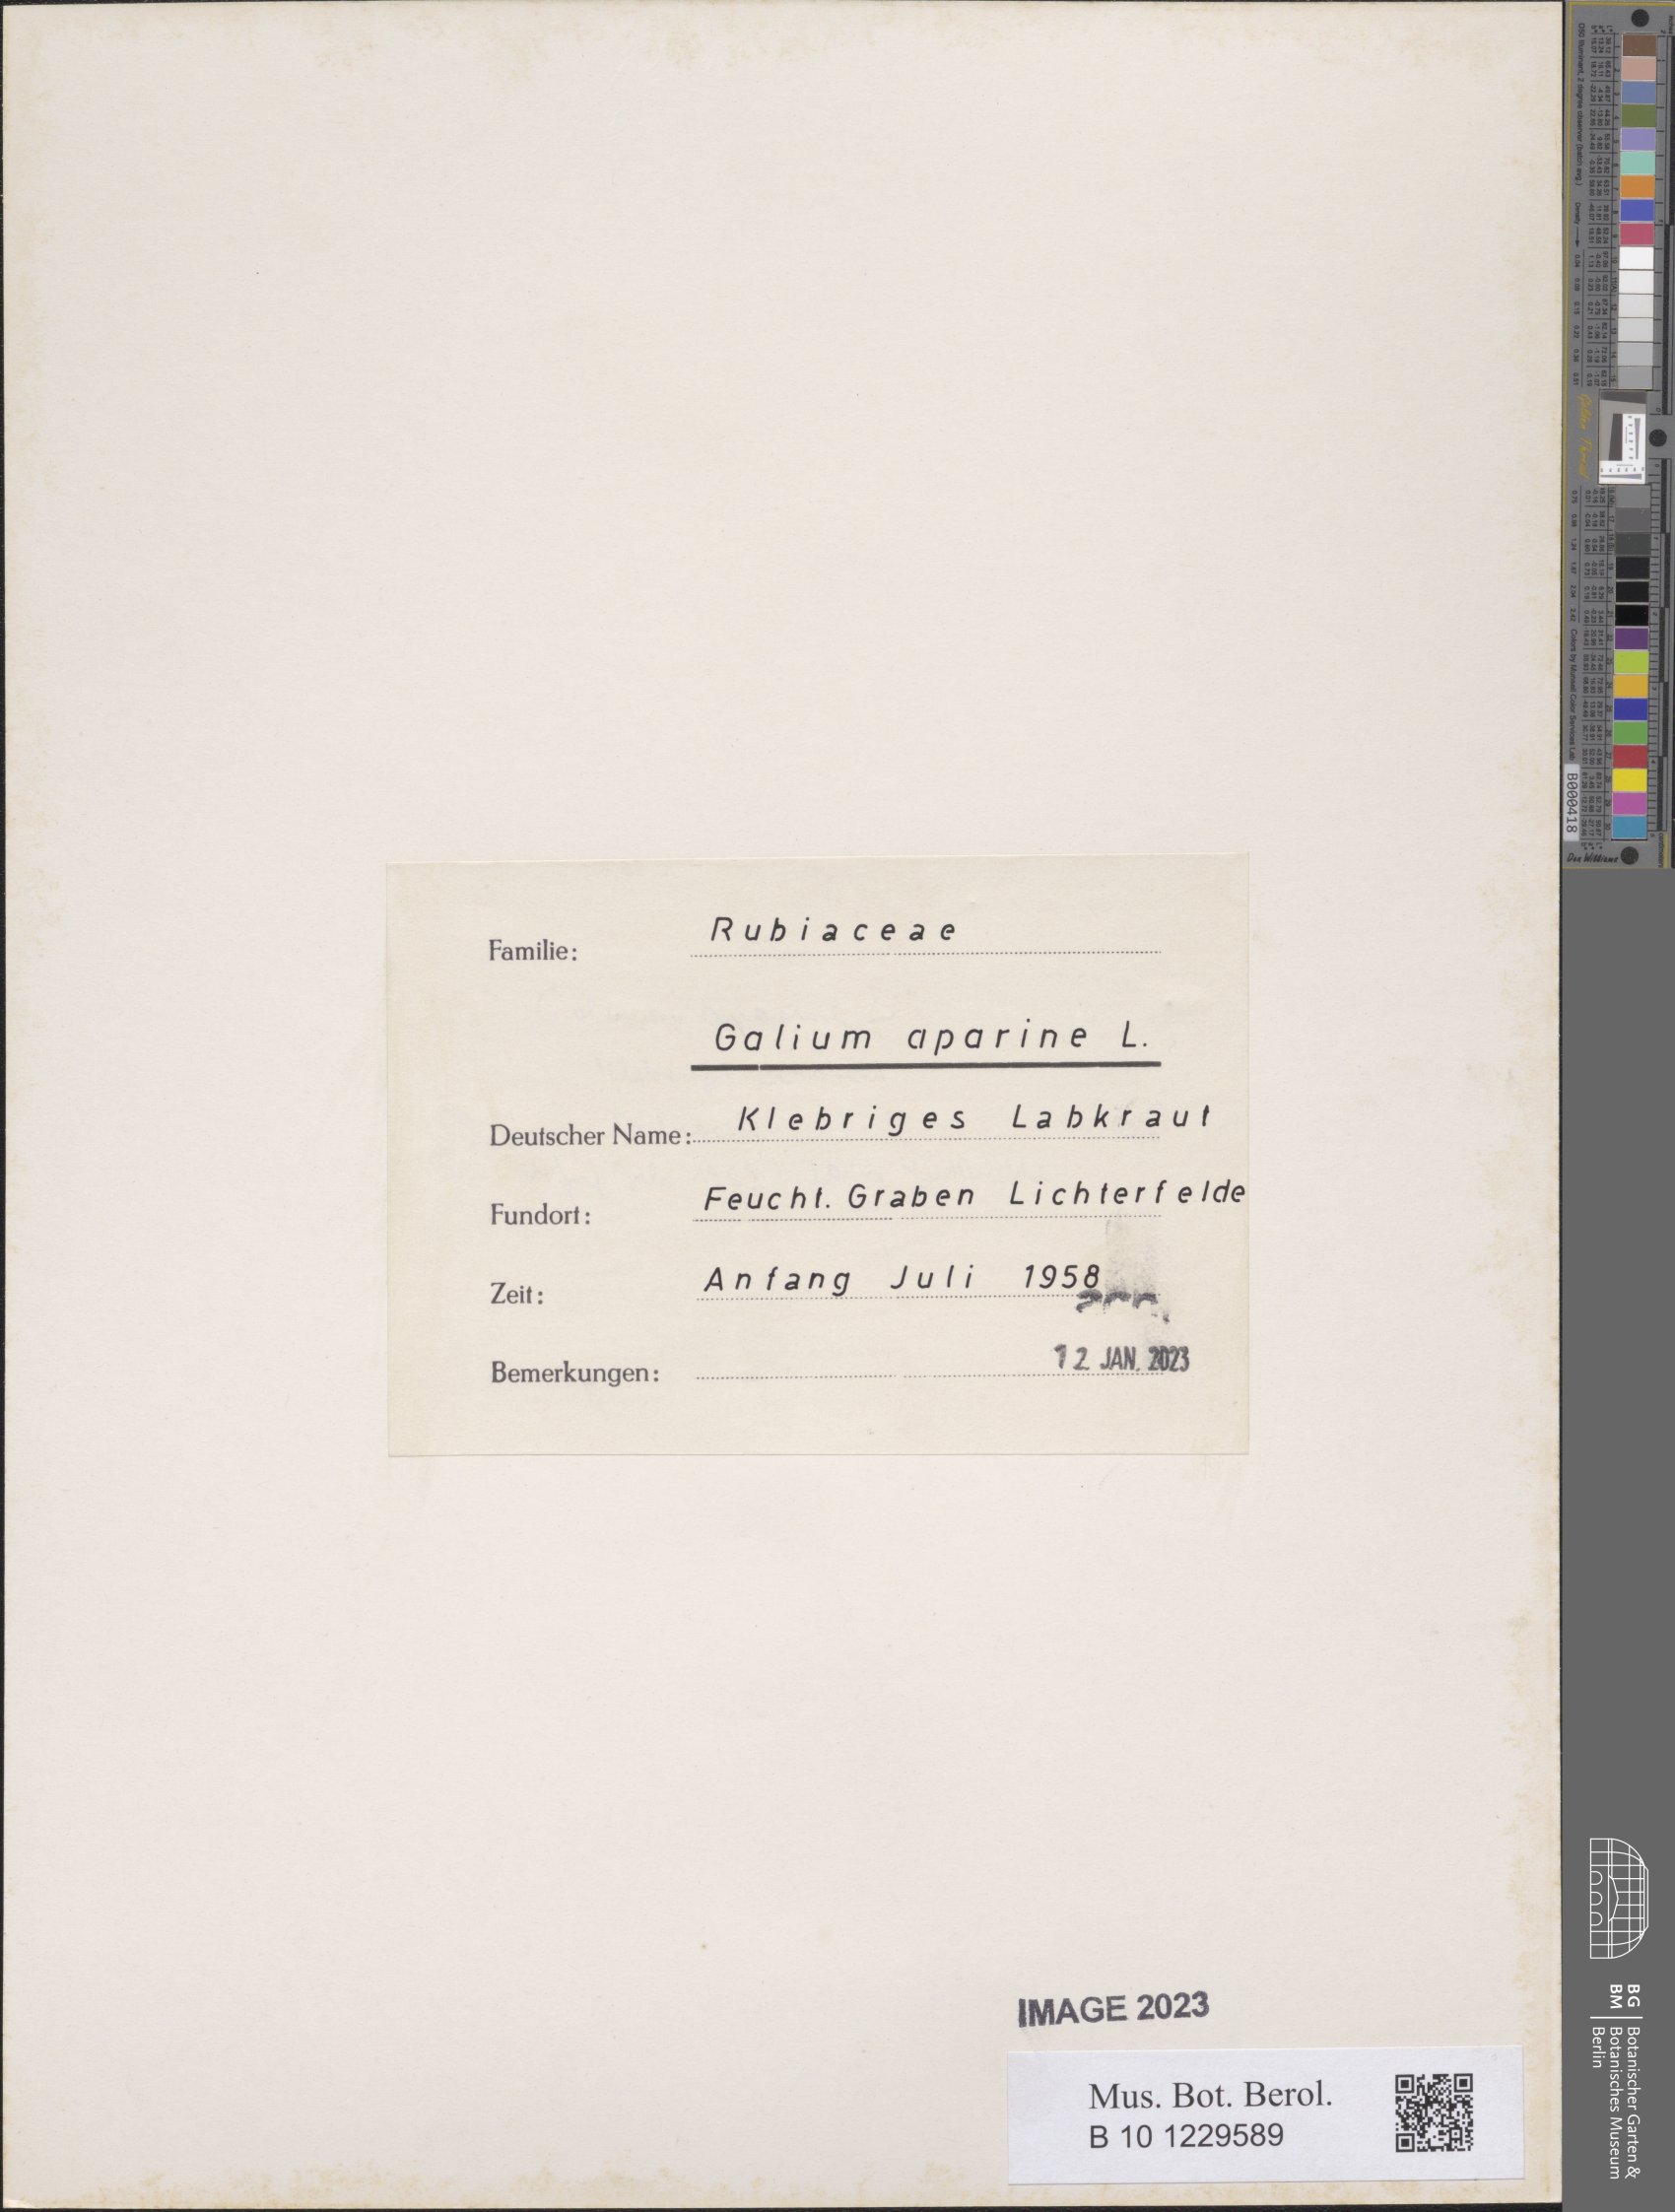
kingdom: Plantae
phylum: Tracheophyta
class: Magnoliopsida
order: Gentianales
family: Rubiaceae
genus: Galium
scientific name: Galium aparine
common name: Cleavers
